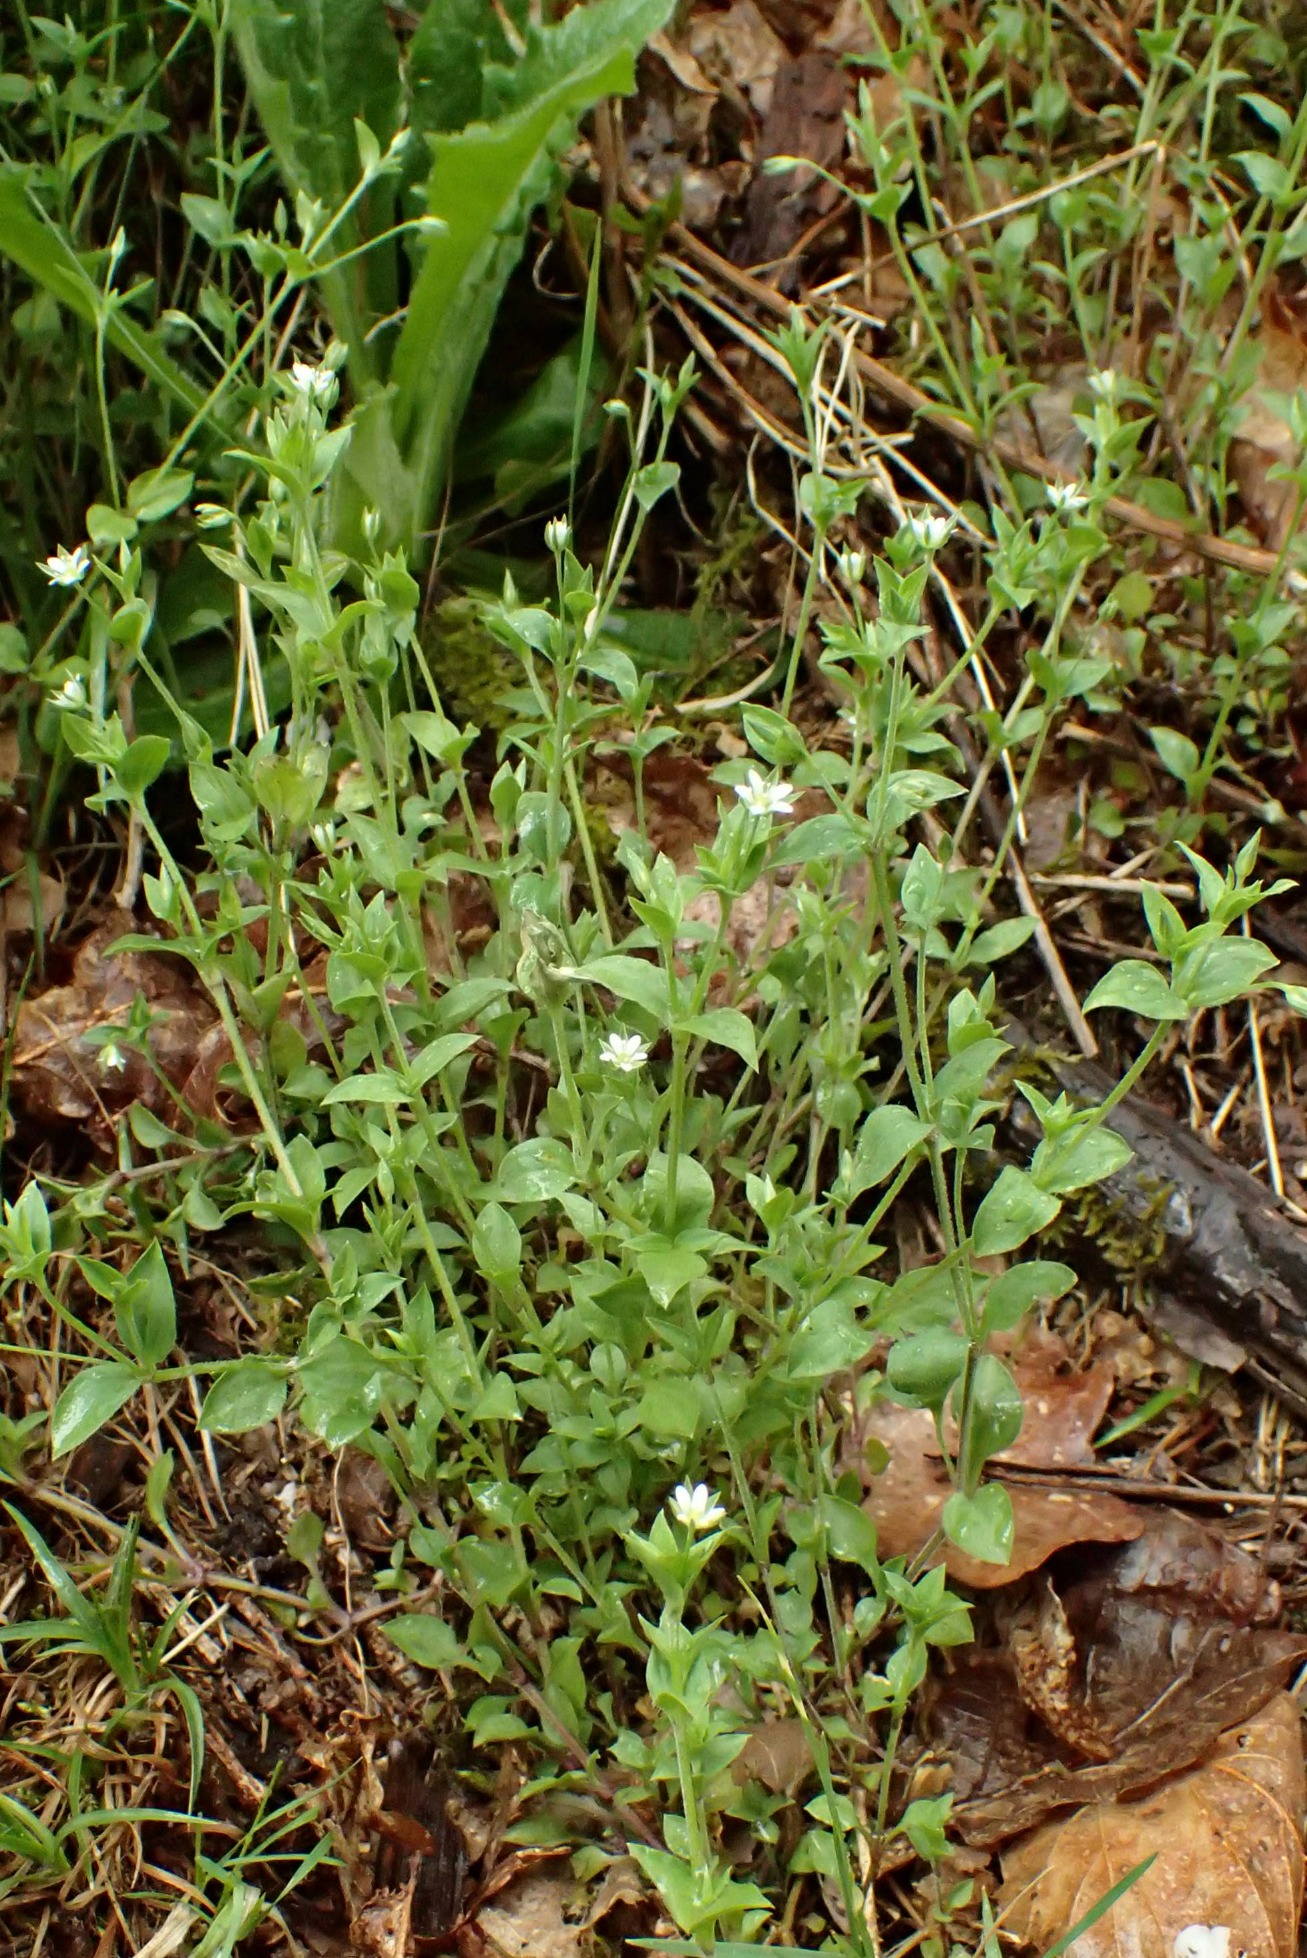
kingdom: Plantae
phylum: Tracheophyta
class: Magnoliopsida
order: Caryophyllales
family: Caryophyllaceae
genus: Moehringia
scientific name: Moehringia trinervia
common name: Skovarve
